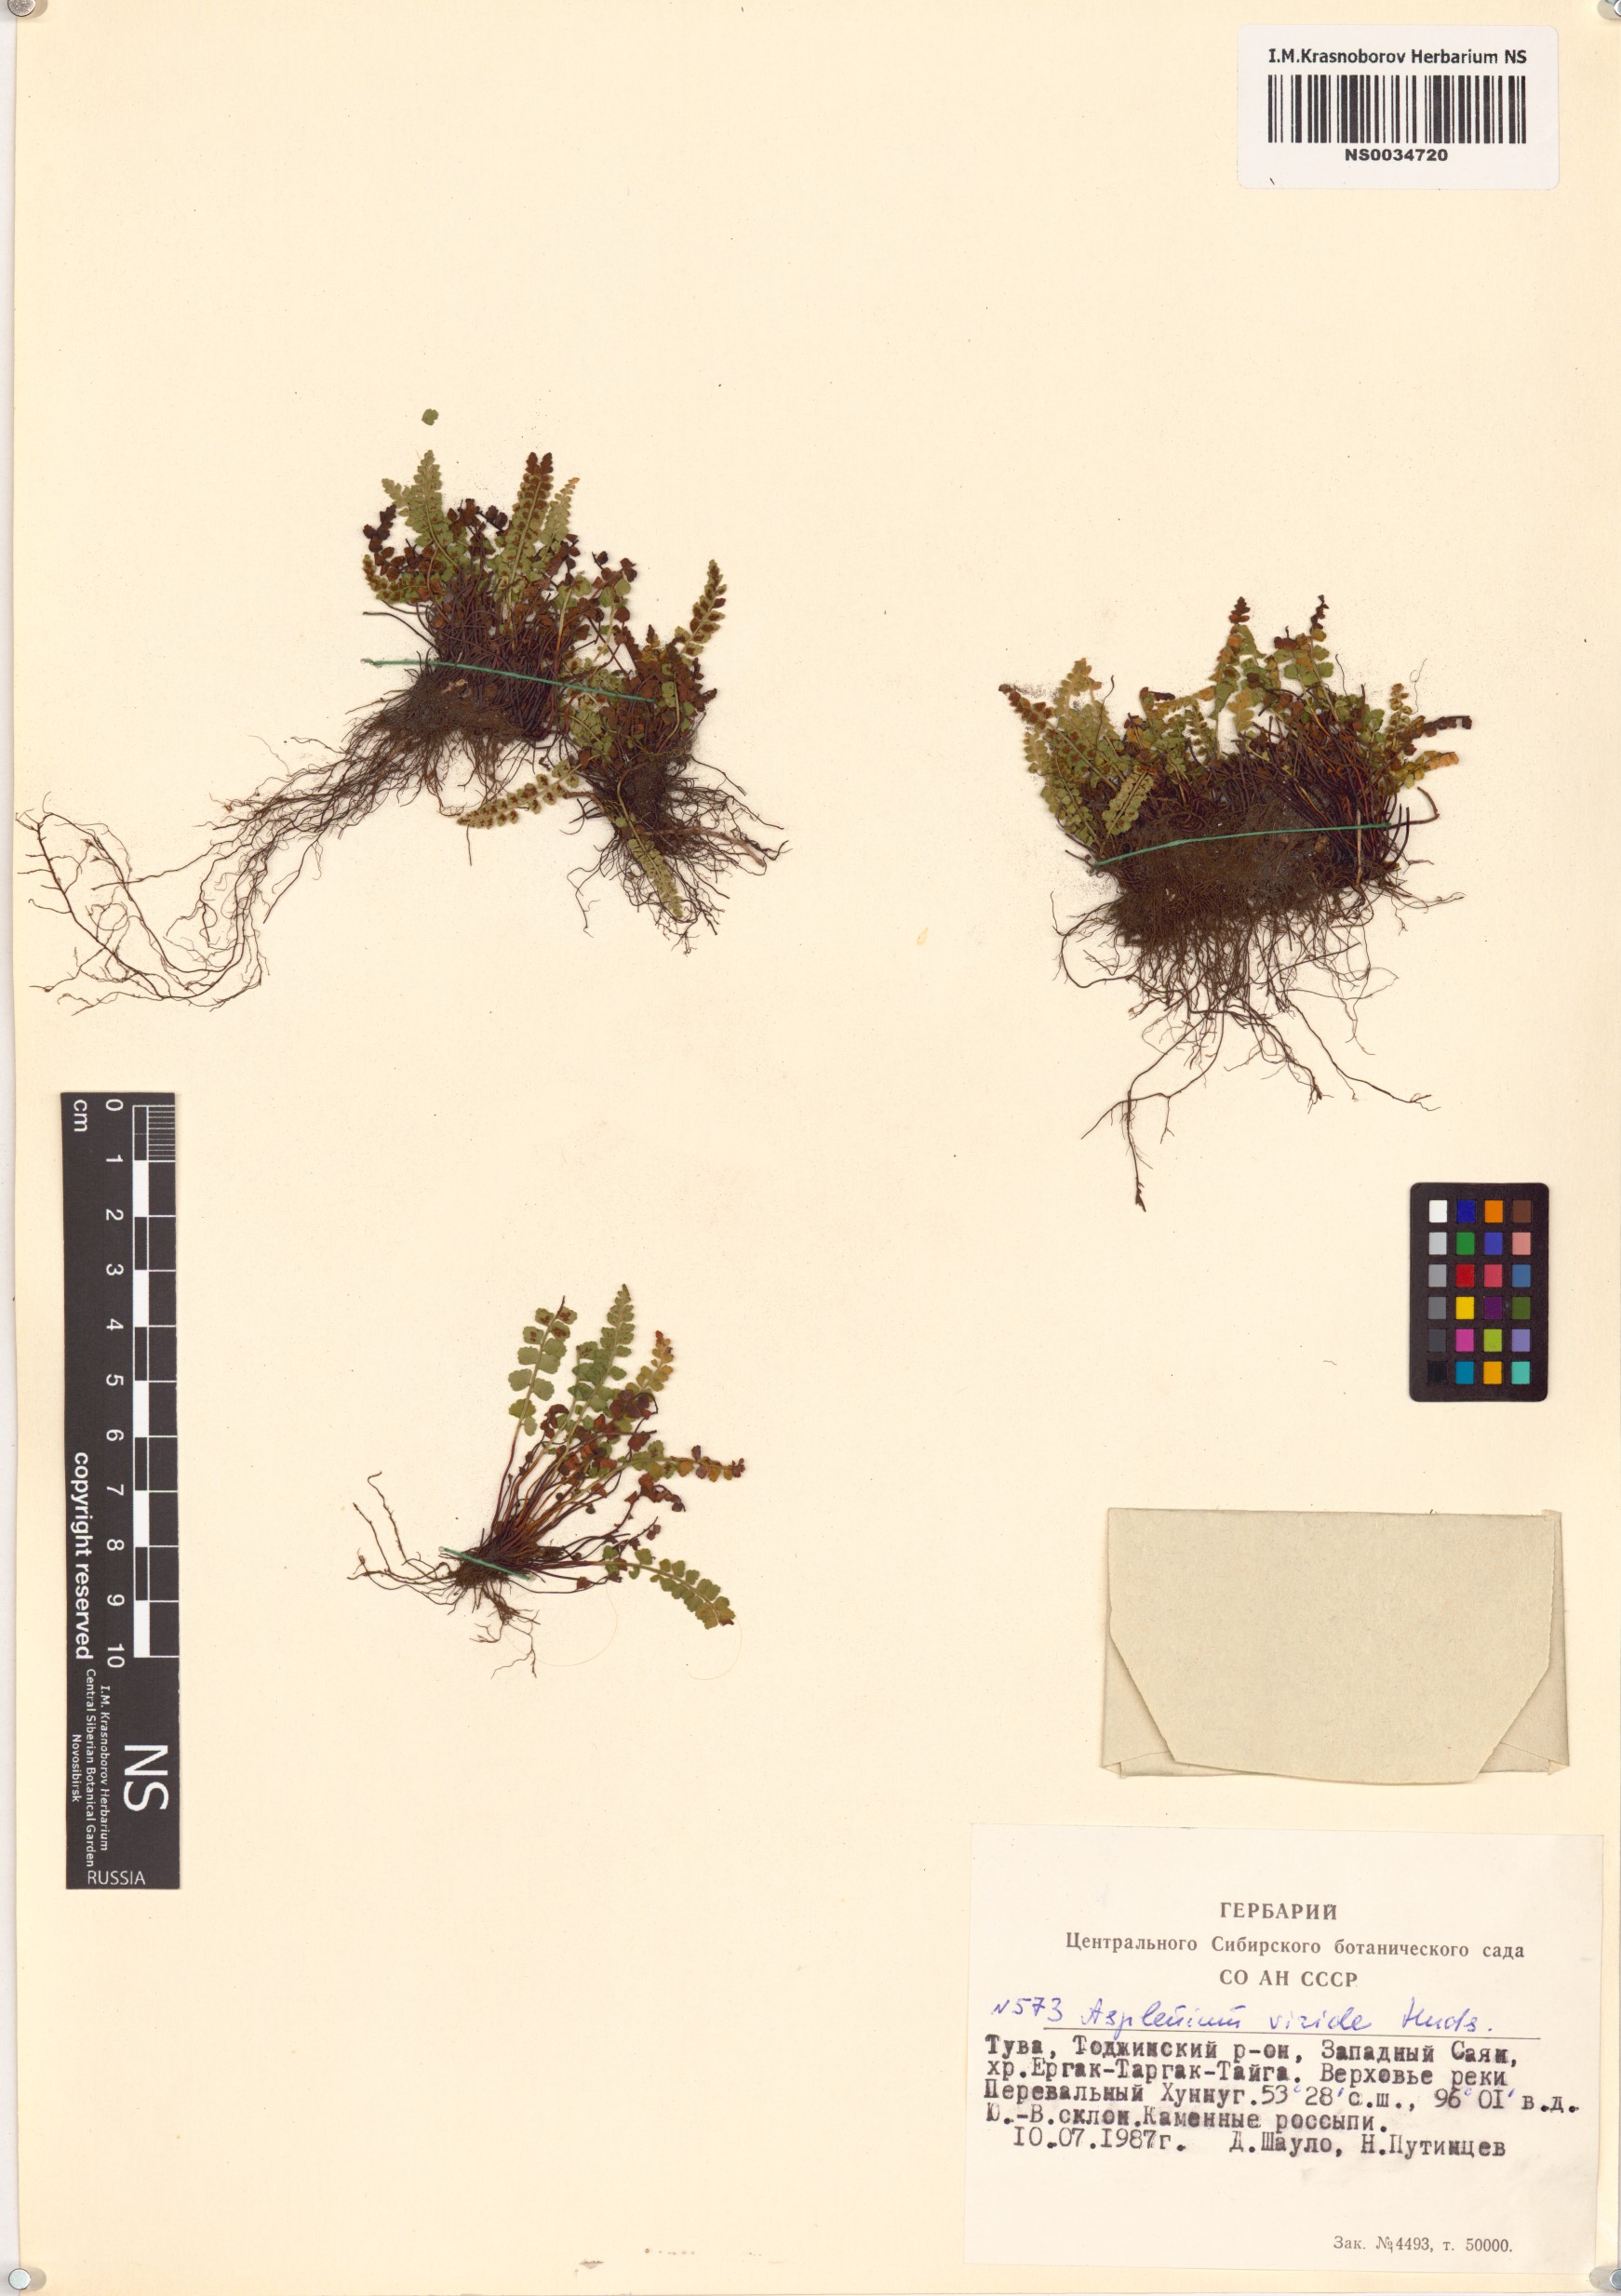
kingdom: Plantae
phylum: Tracheophyta
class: Polypodiopsida
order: Polypodiales
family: Aspleniaceae
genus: Asplenium
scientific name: Asplenium viride
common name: Green spleenwort
